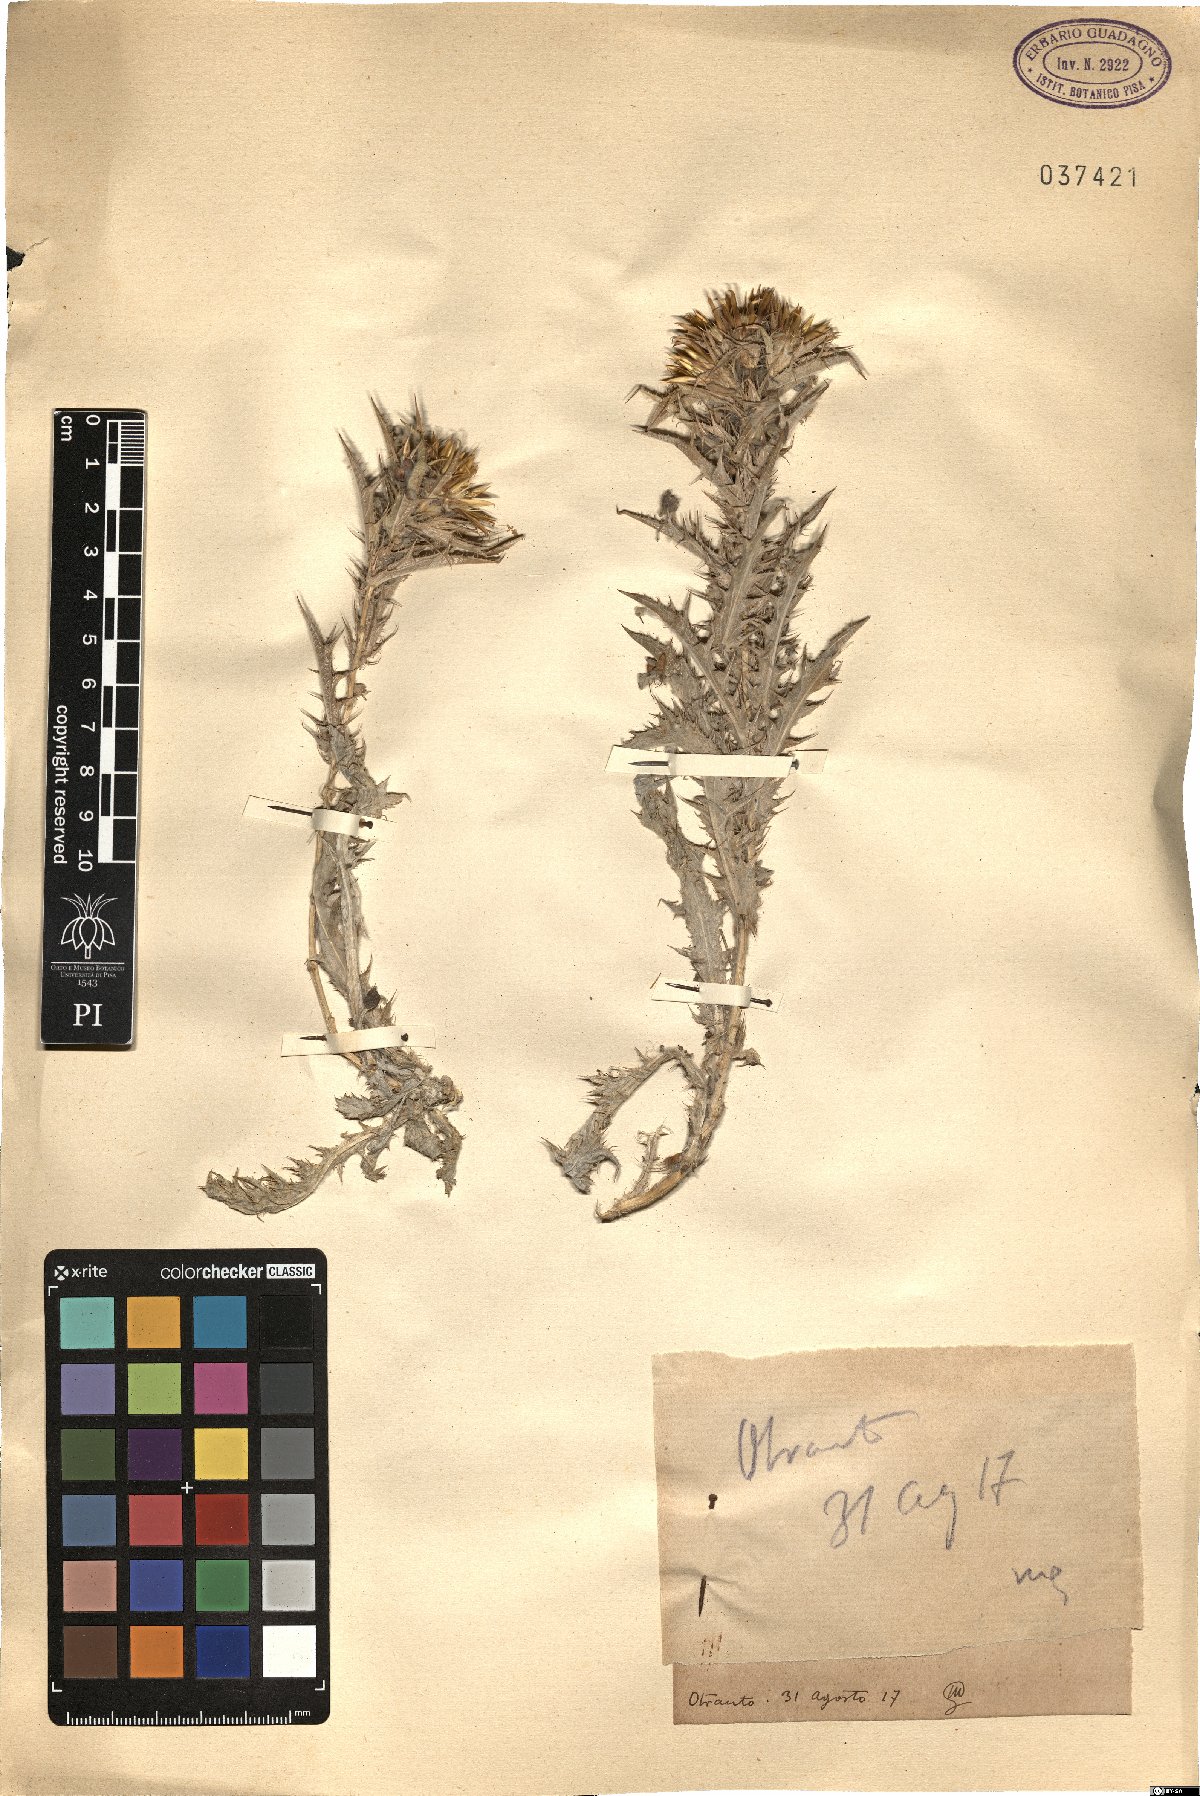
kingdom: Plantae
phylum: Tracheophyta
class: Magnoliopsida
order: Asterales
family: Asteraceae
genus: Carlina
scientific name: Carlina
